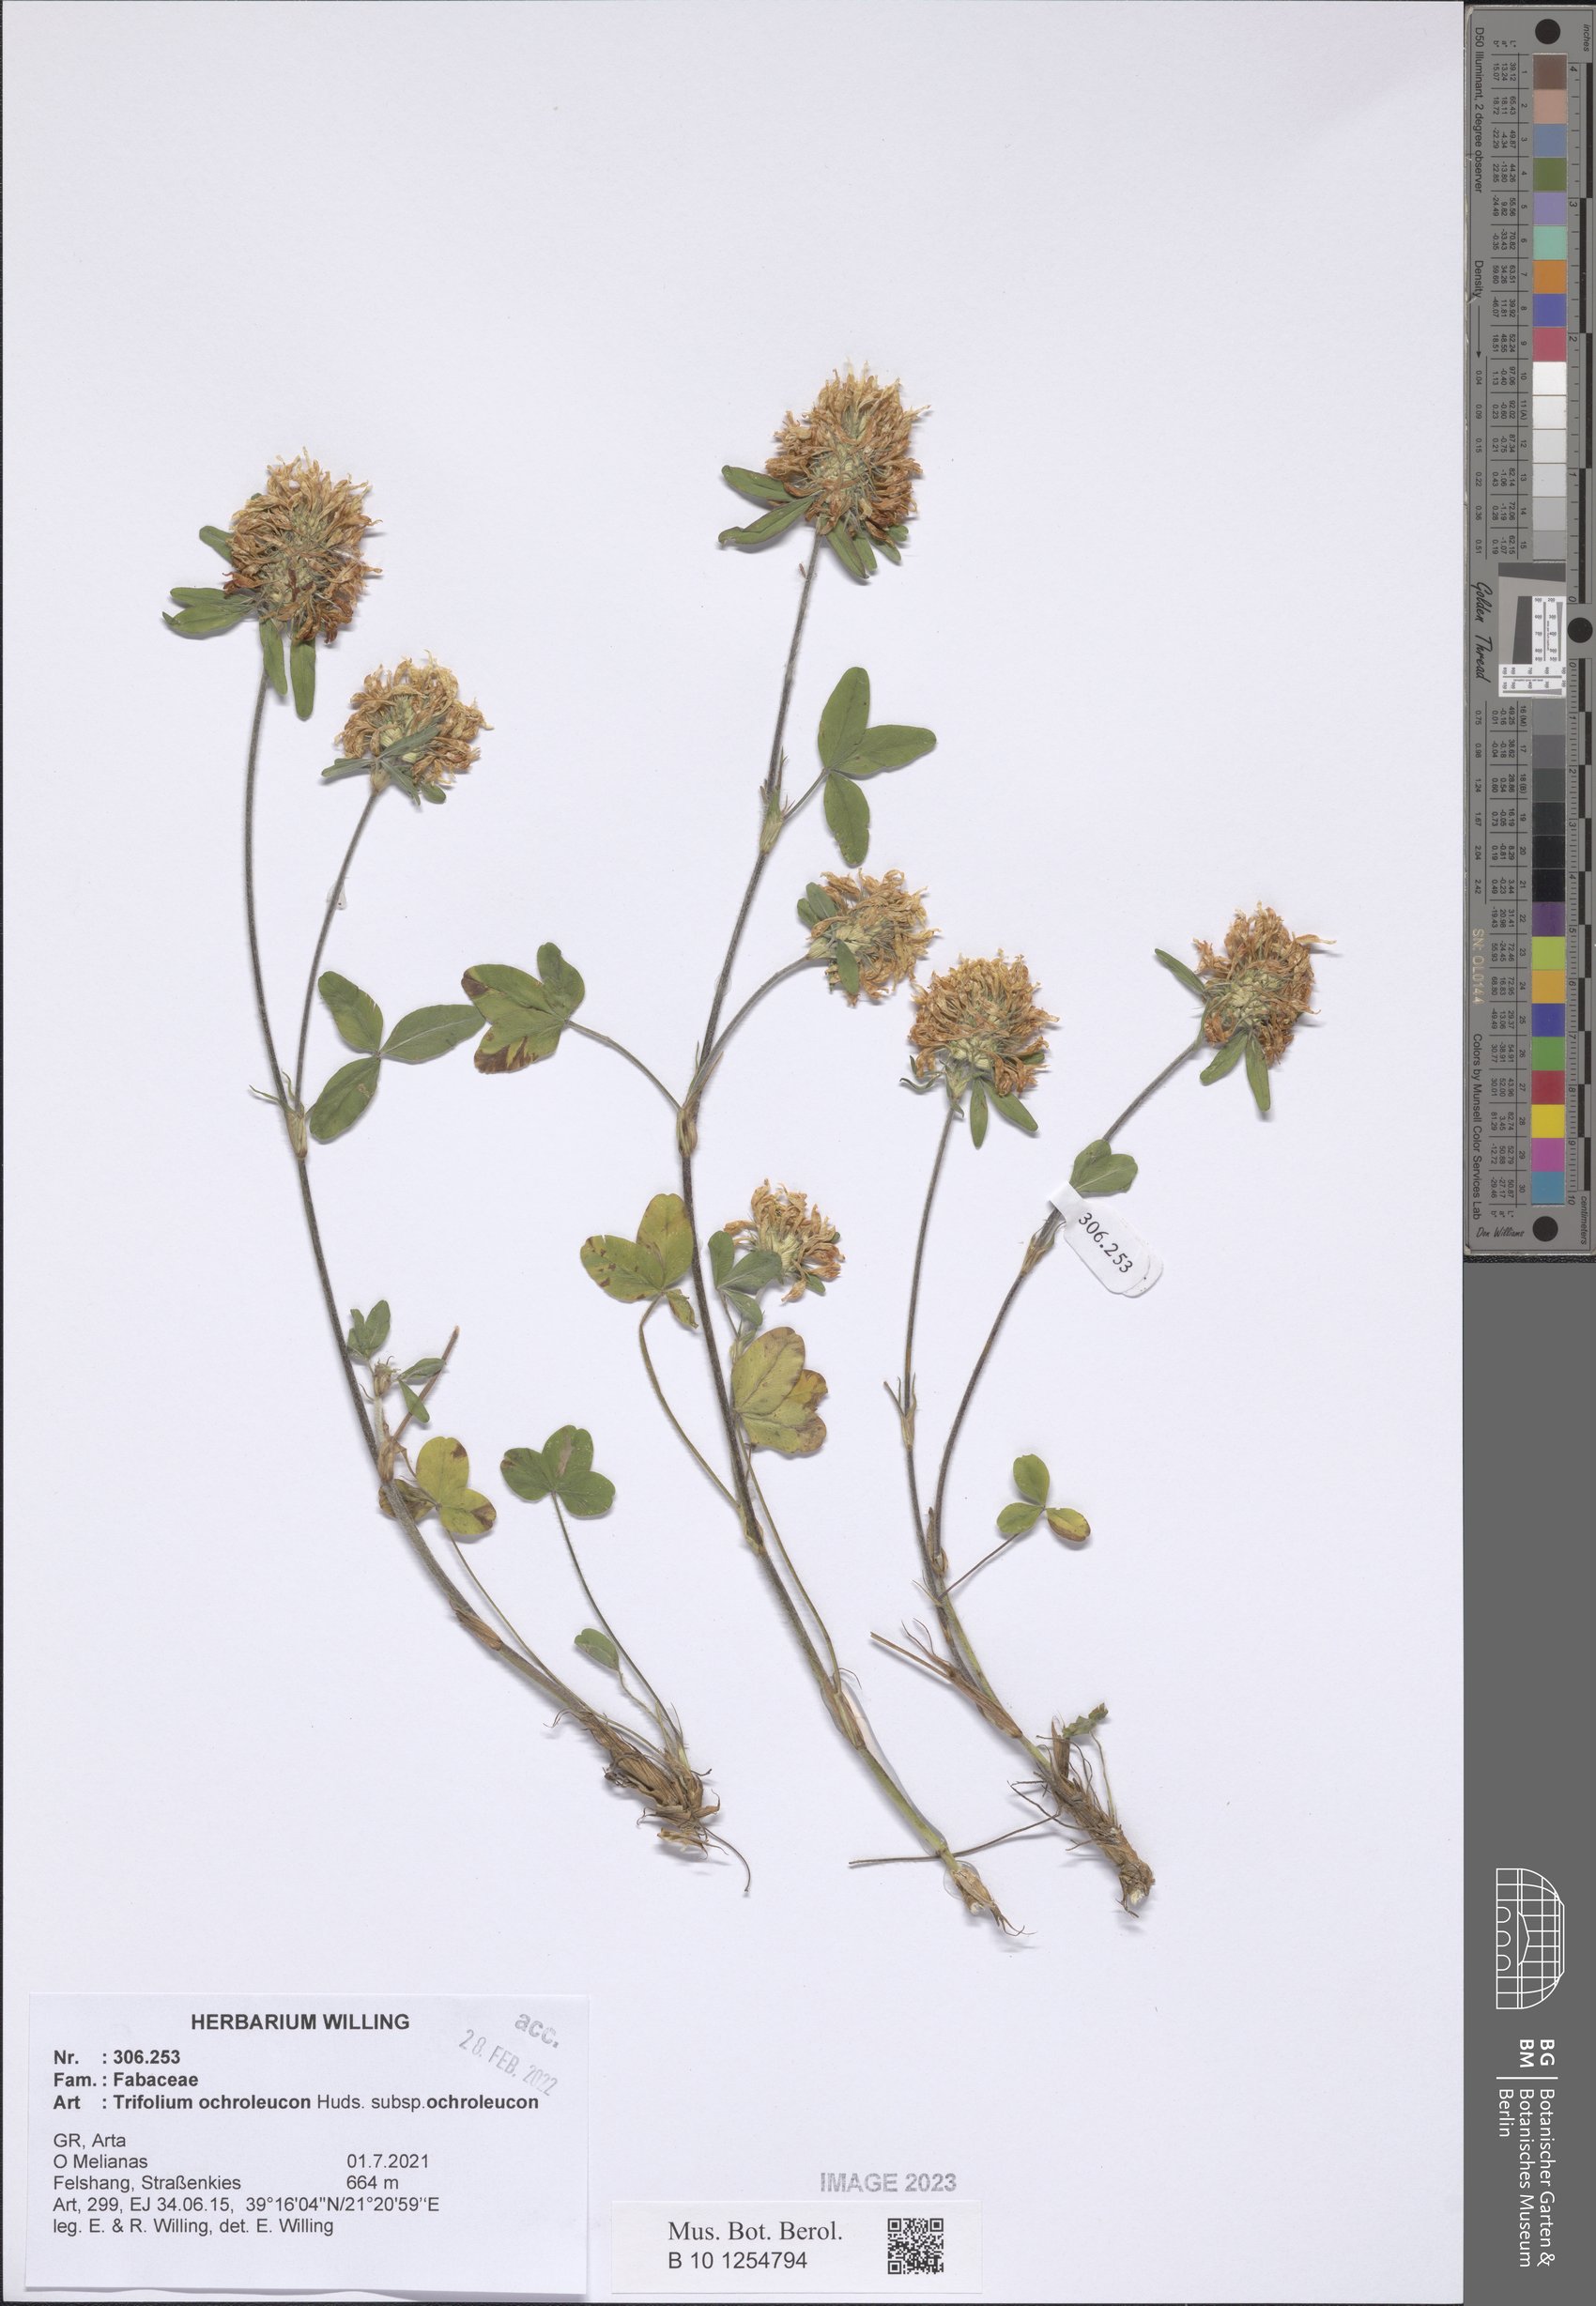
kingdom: Plantae
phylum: Tracheophyta
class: Magnoliopsida
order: Fabales
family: Fabaceae
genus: Trifolium
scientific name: Trifolium ochroleucon
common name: Sulphur clover
